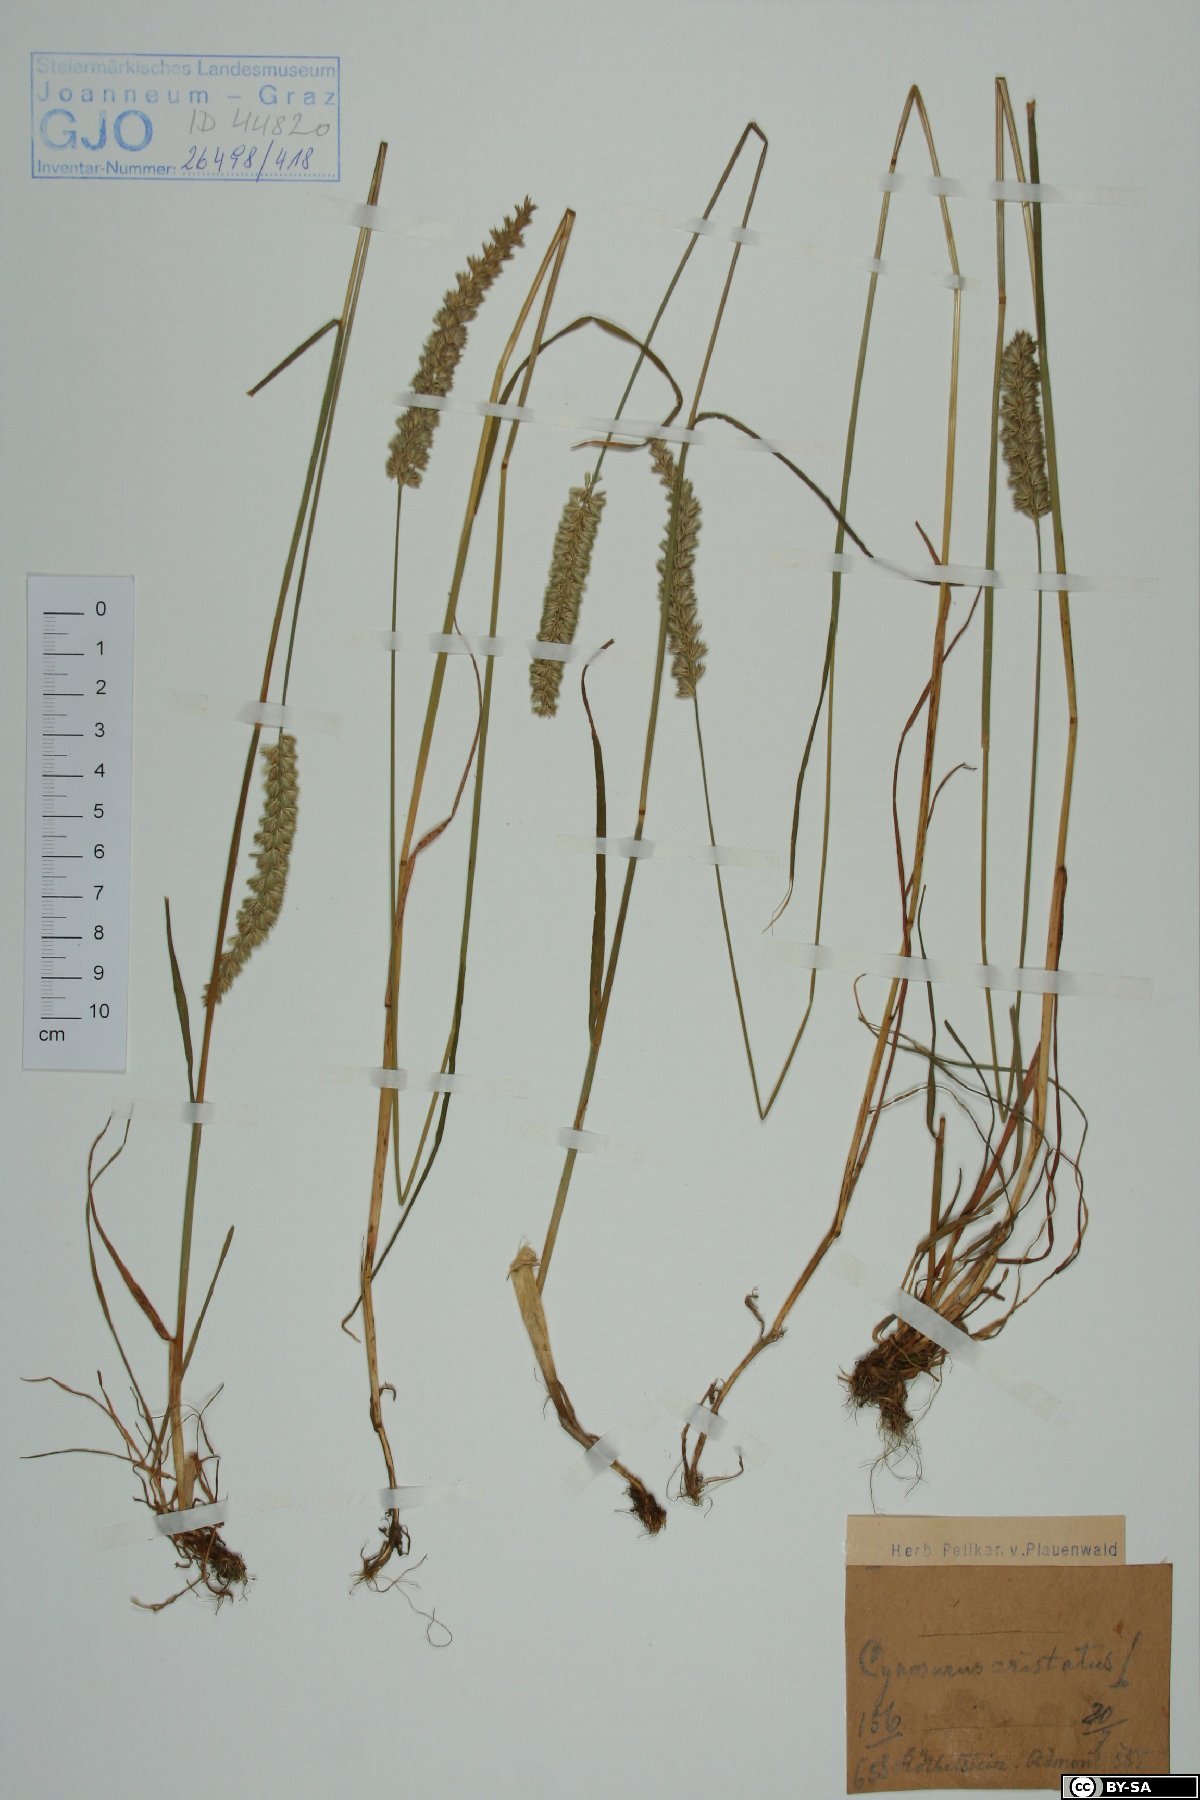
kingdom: Plantae
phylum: Tracheophyta
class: Liliopsida
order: Poales
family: Poaceae
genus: Cynosurus
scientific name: Cynosurus cristatus
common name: Crested dog's-tail
